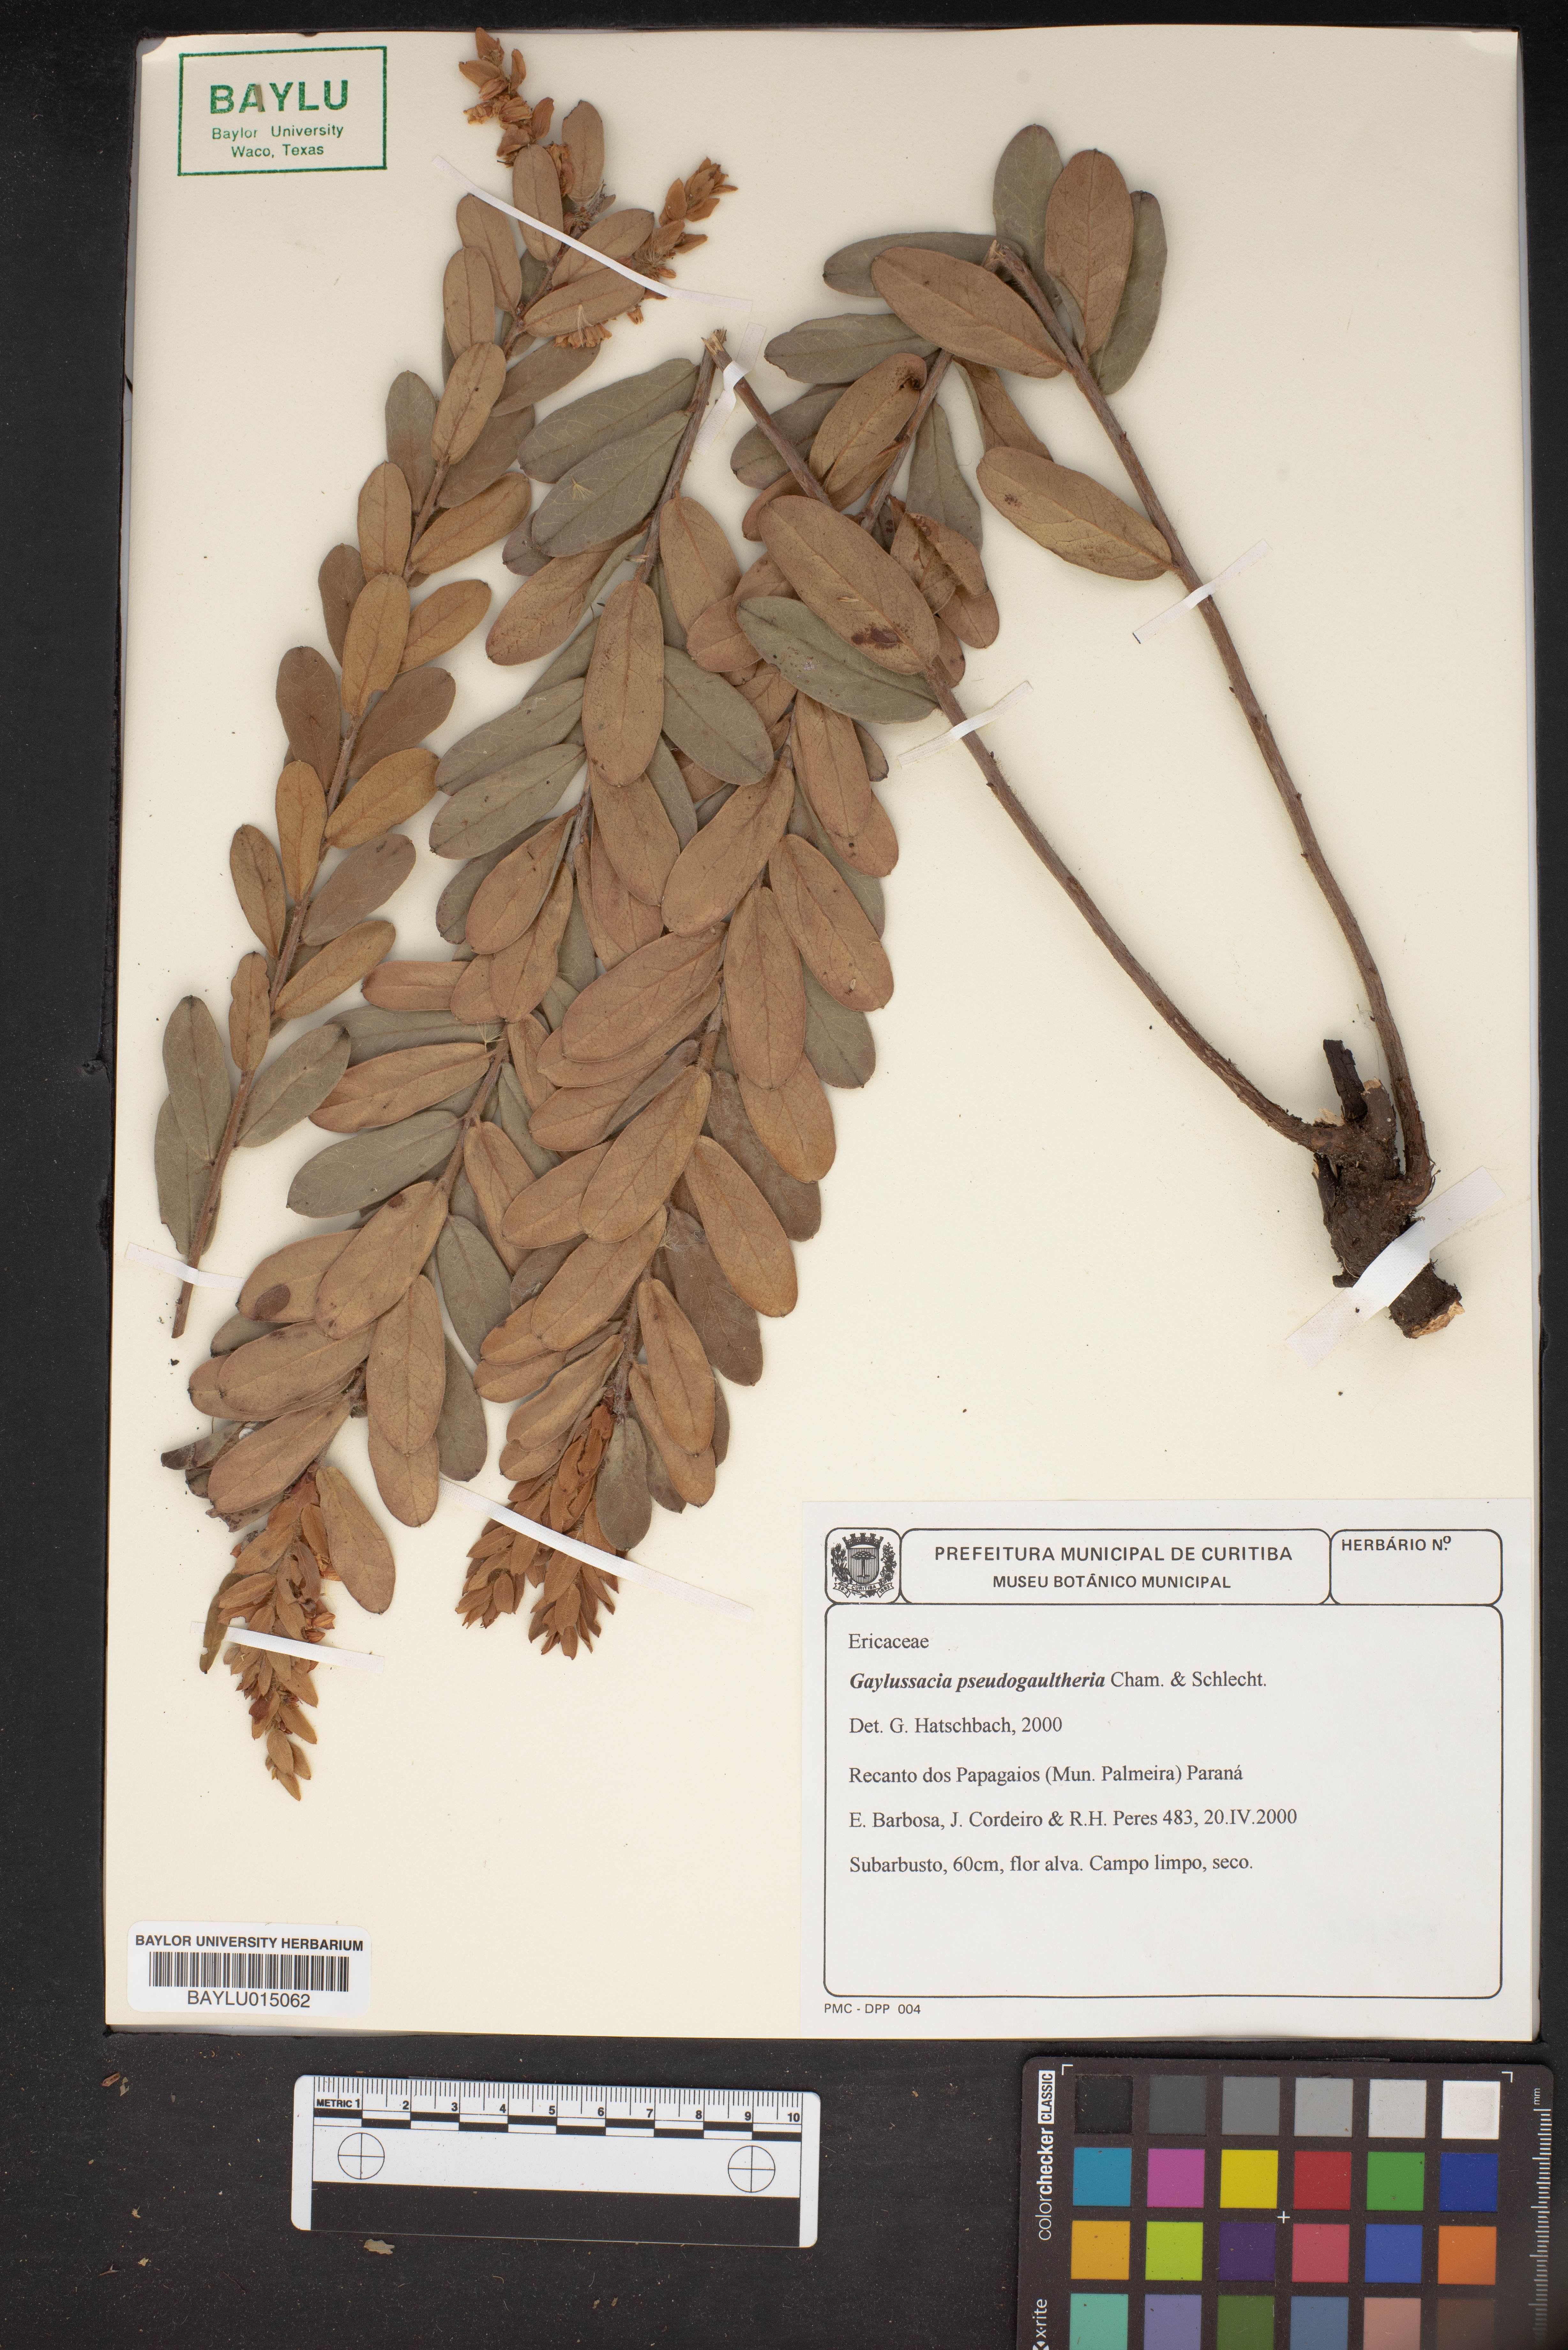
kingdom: Plantae
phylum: Tracheophyta
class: Magnoliopsida
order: Ericales
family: Ericaceae
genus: Gaylussacia
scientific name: Gaylussacia pseudogaultheria
